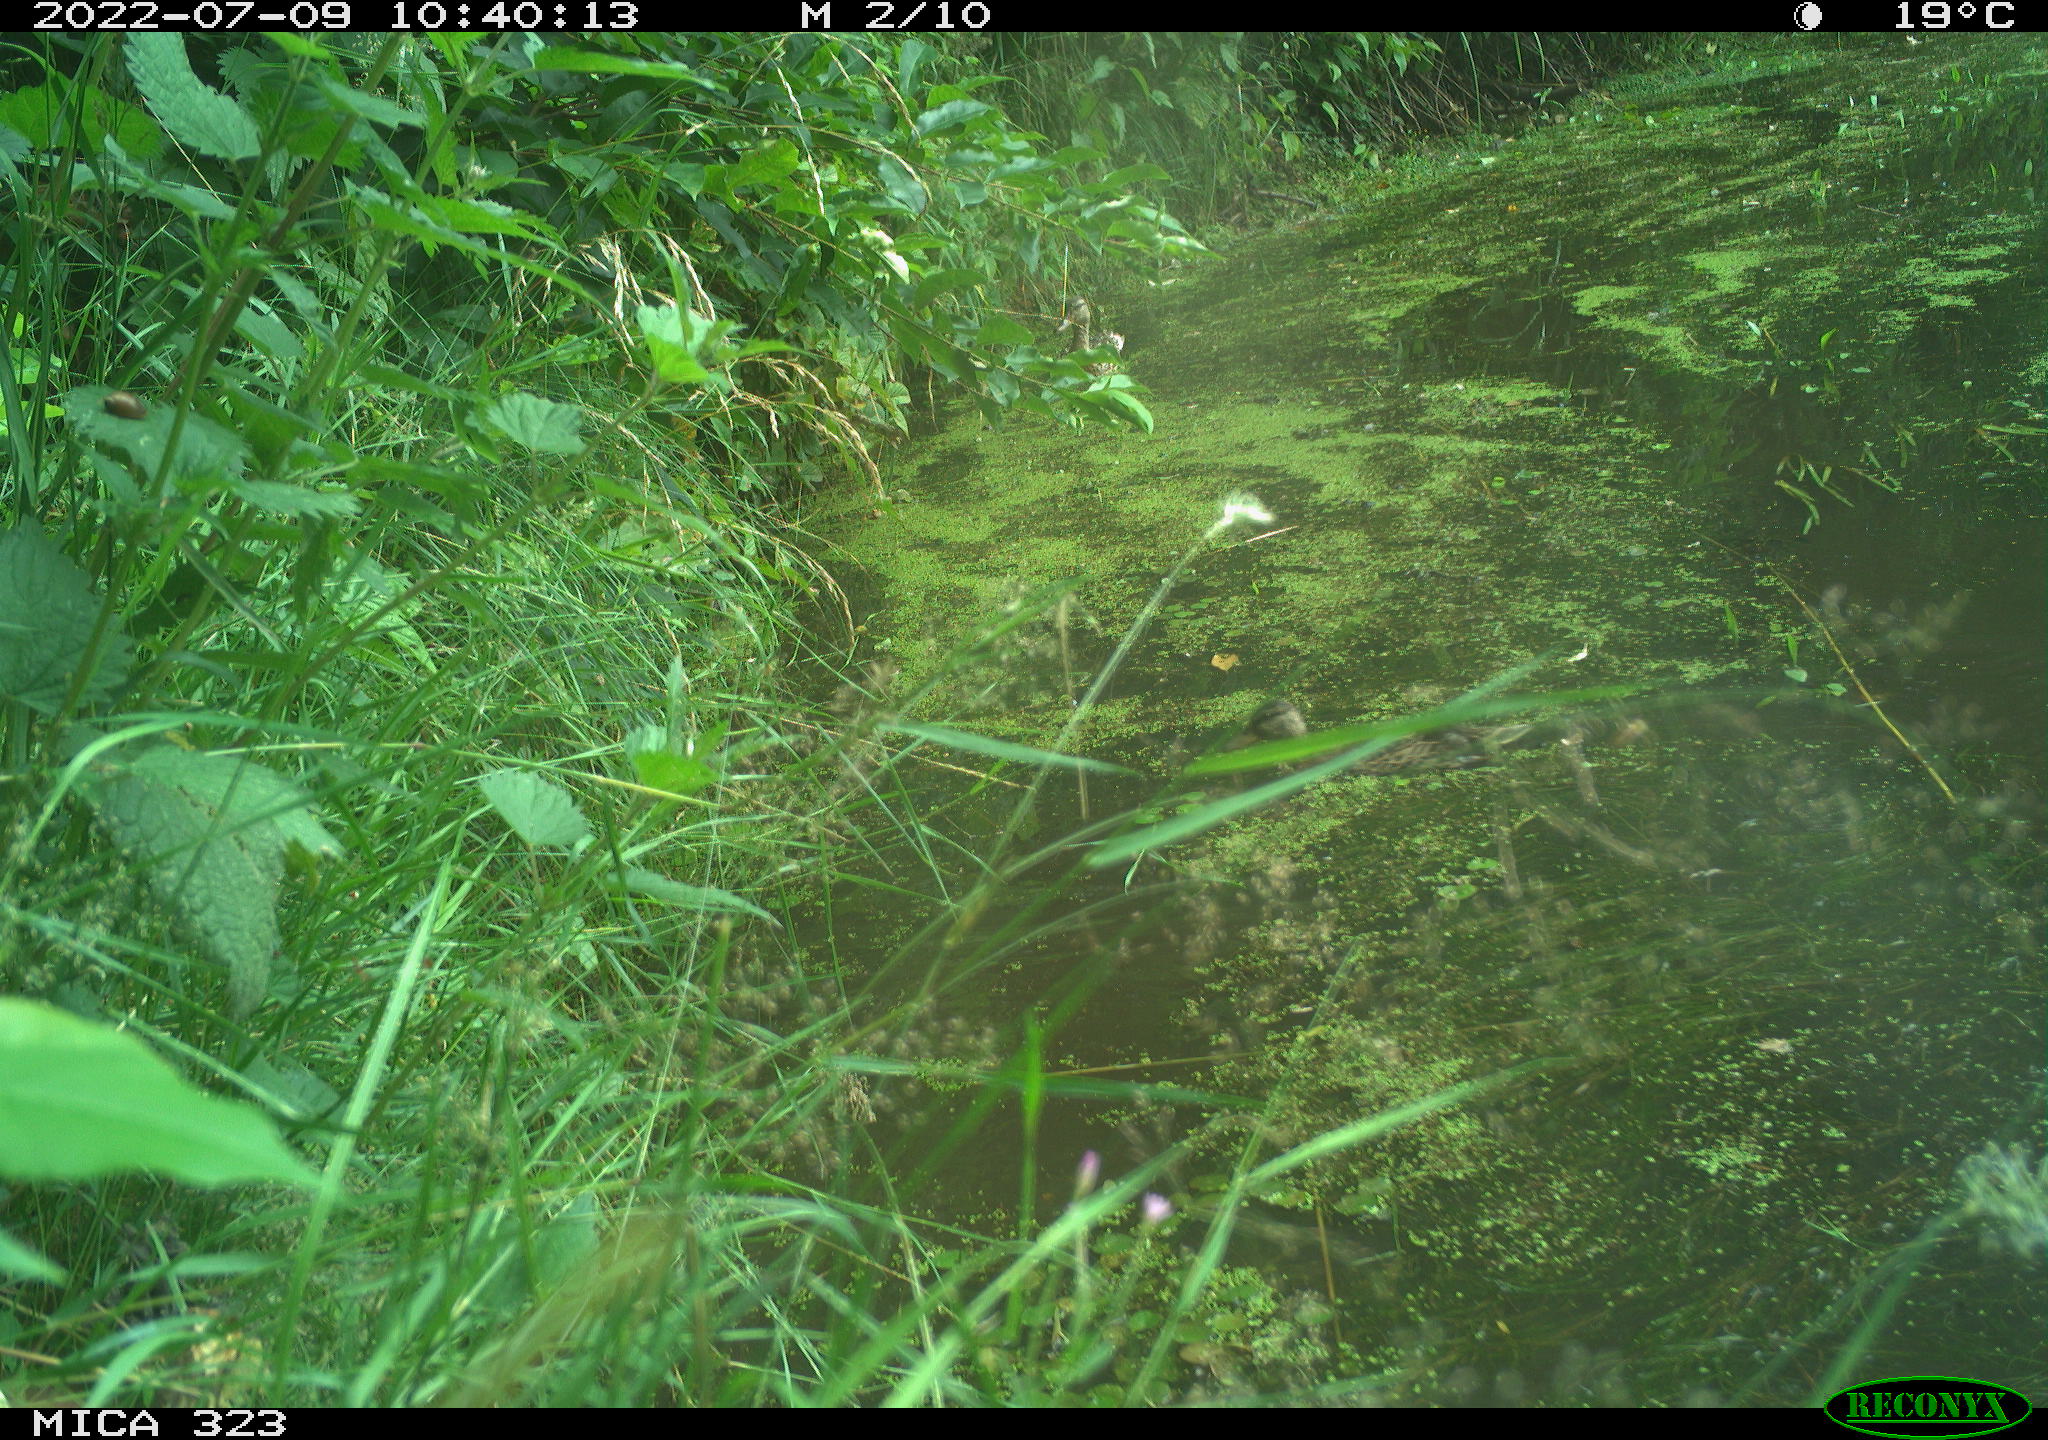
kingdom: Animalia
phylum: Chordata
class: Aves
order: Anseriformes
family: Anatidae
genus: Anas
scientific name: Anas platyrhynchos
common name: Mallard
